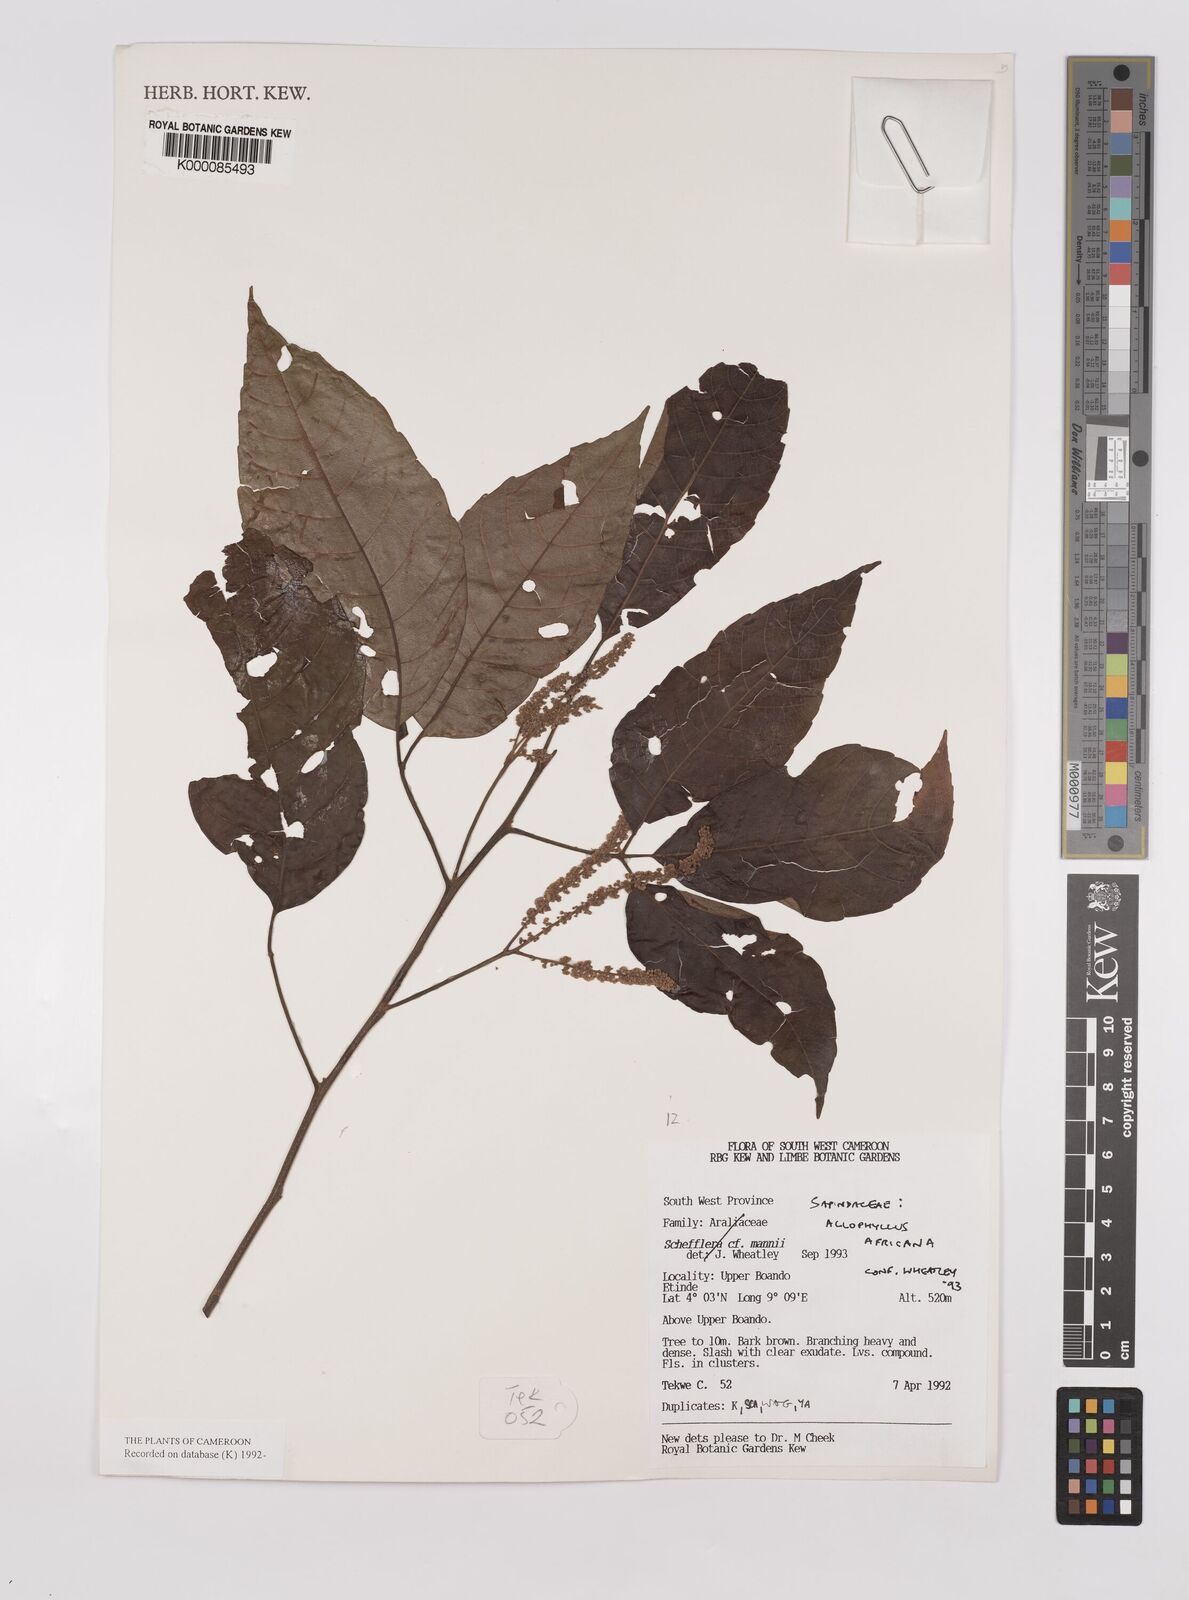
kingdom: Plantae
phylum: Tracheophyta
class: Magnoliopsida
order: Sapindales
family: Sapindaceae
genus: Allophylus
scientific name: Allophylus africanus
